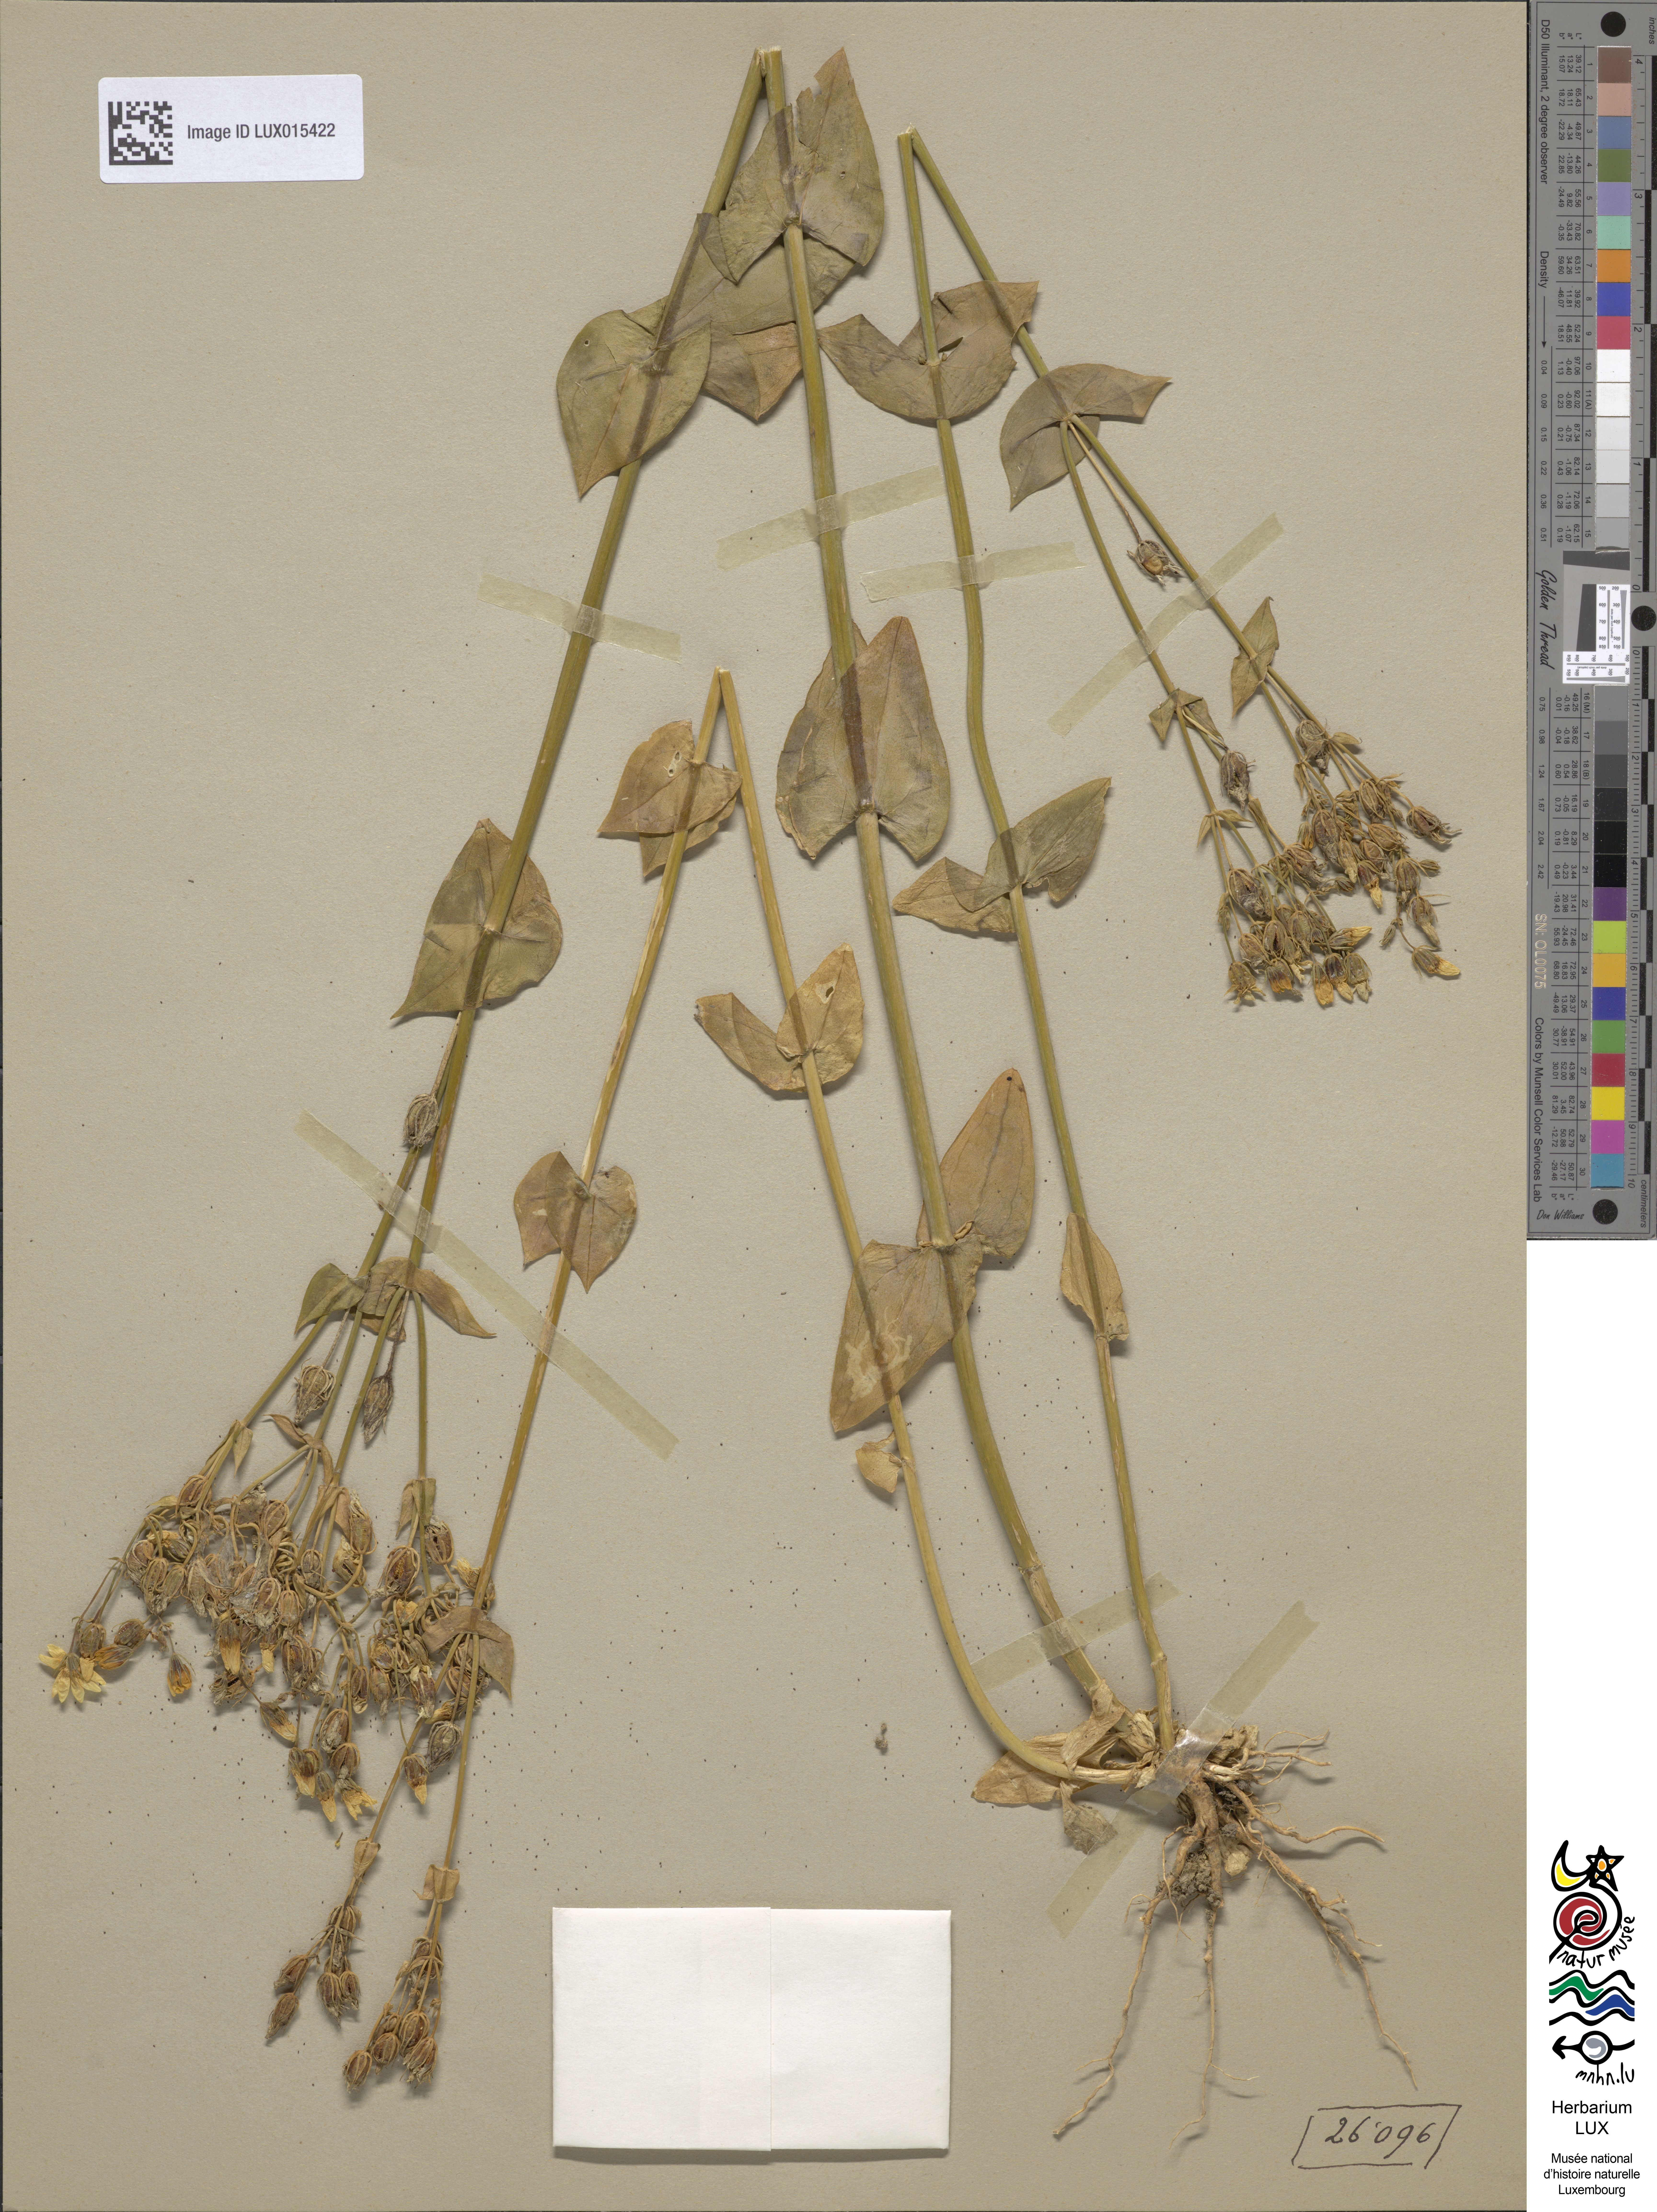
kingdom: Plantae
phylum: Tracheophyta
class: Magnoliopsida
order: Gentianales
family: Gentianaceae
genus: Blackstonia
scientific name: Blackstonia perfoliata
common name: Yellow-wort
